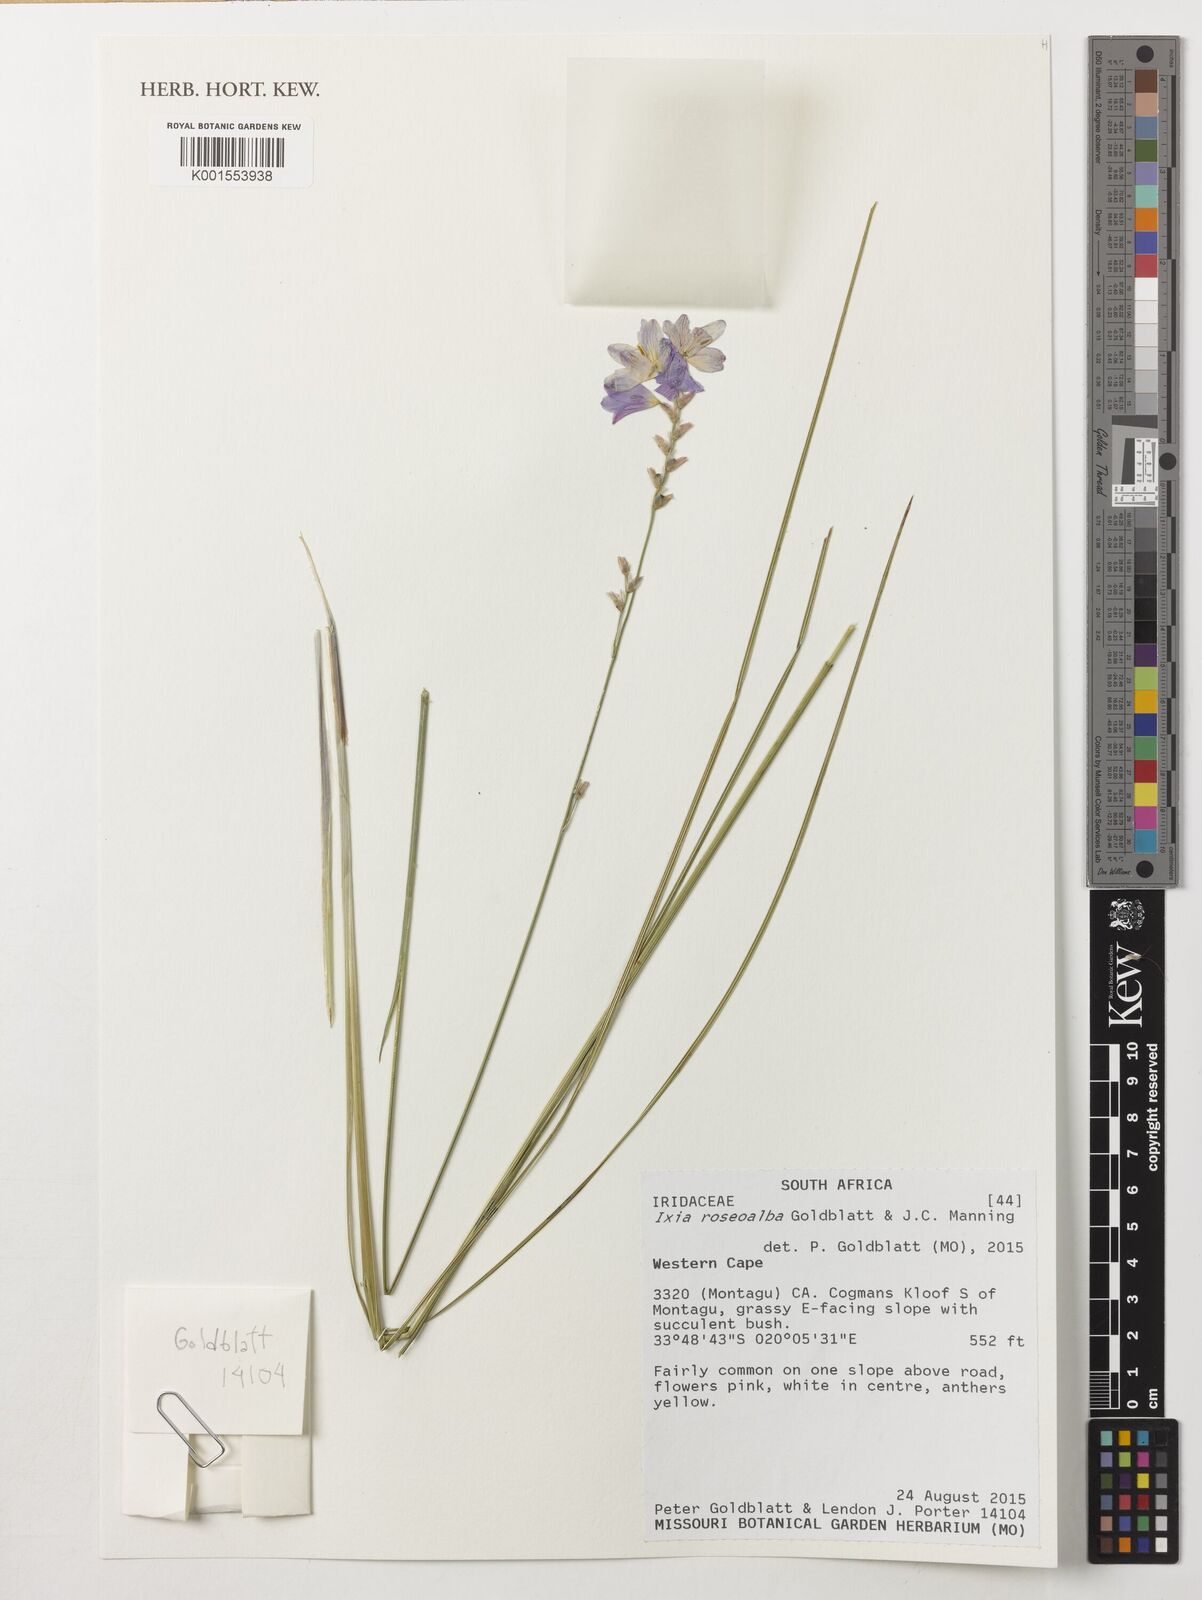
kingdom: Plantae
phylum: Tracheophyta
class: Liliopsida
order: Asparagales
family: Iridaceae
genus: Ixia
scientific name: Ixia roseoalba
